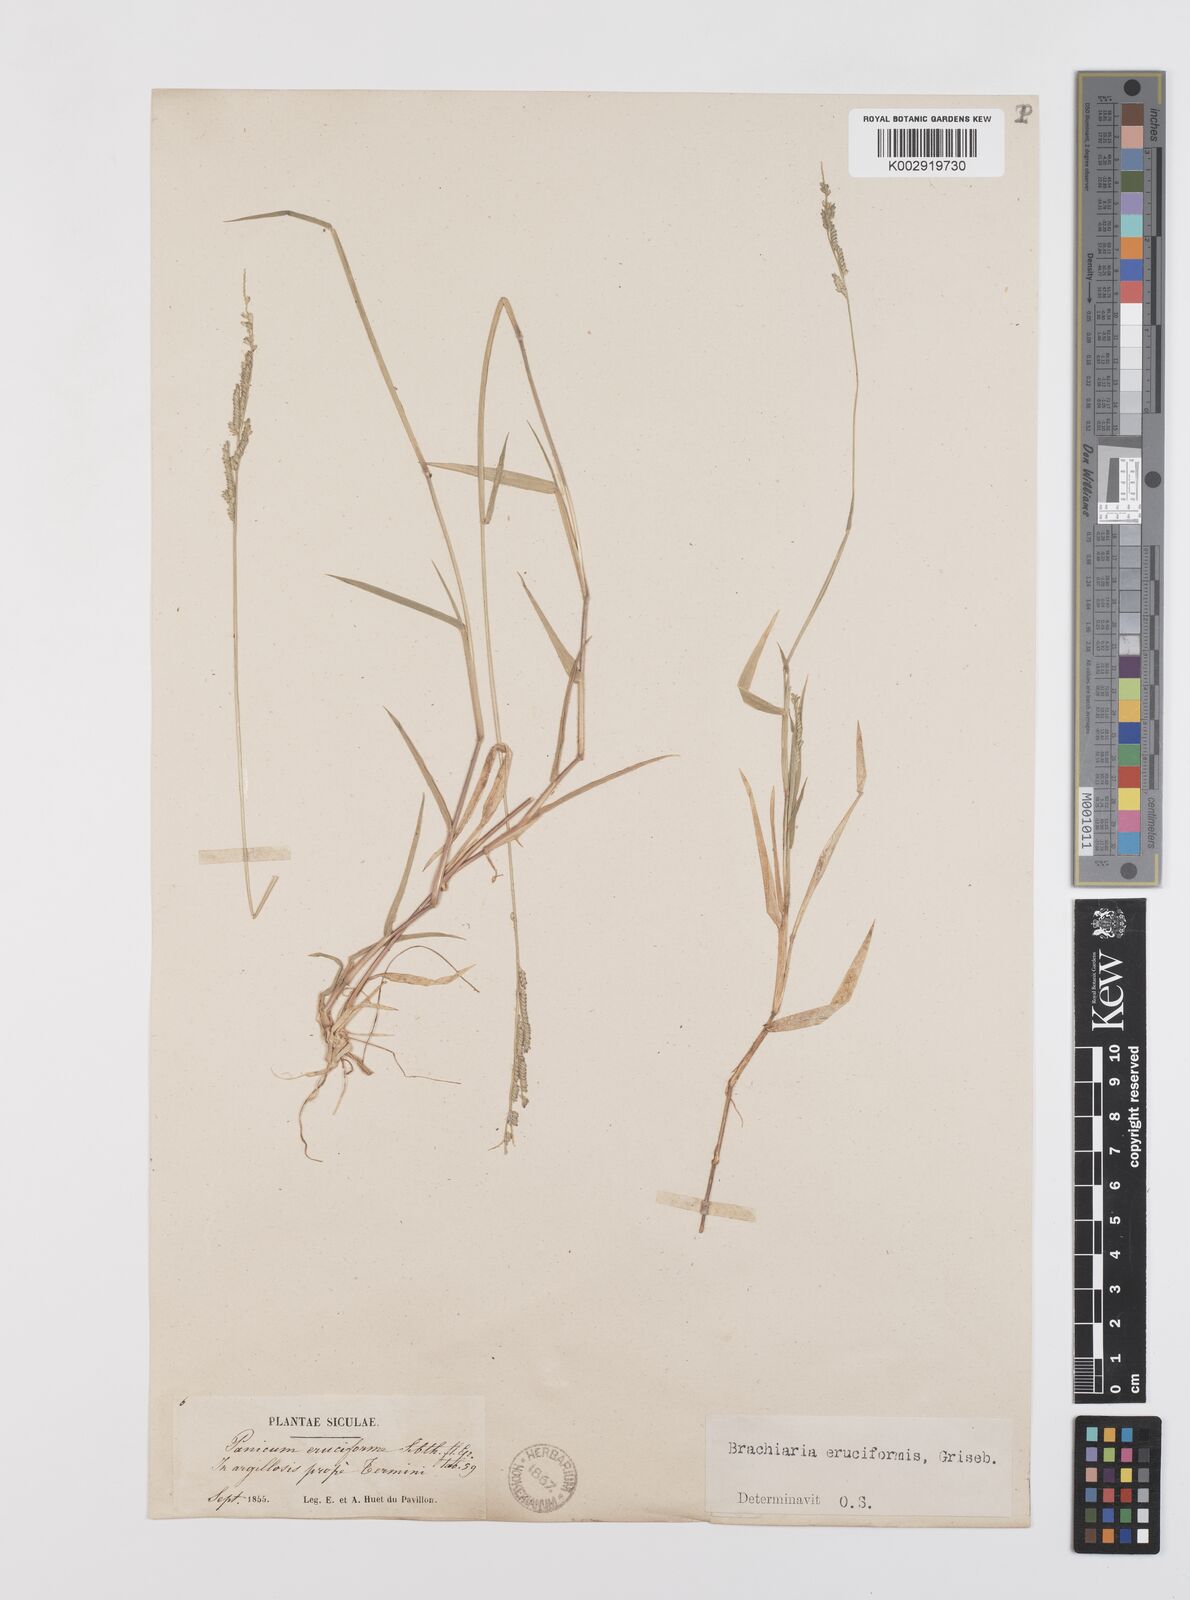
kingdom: Plantae
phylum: Tracheophyta
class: Liliopsida
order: Poales
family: Poaceae
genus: Moorochloa
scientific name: Moorochloa eruciformis
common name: Sweet signalgrass
